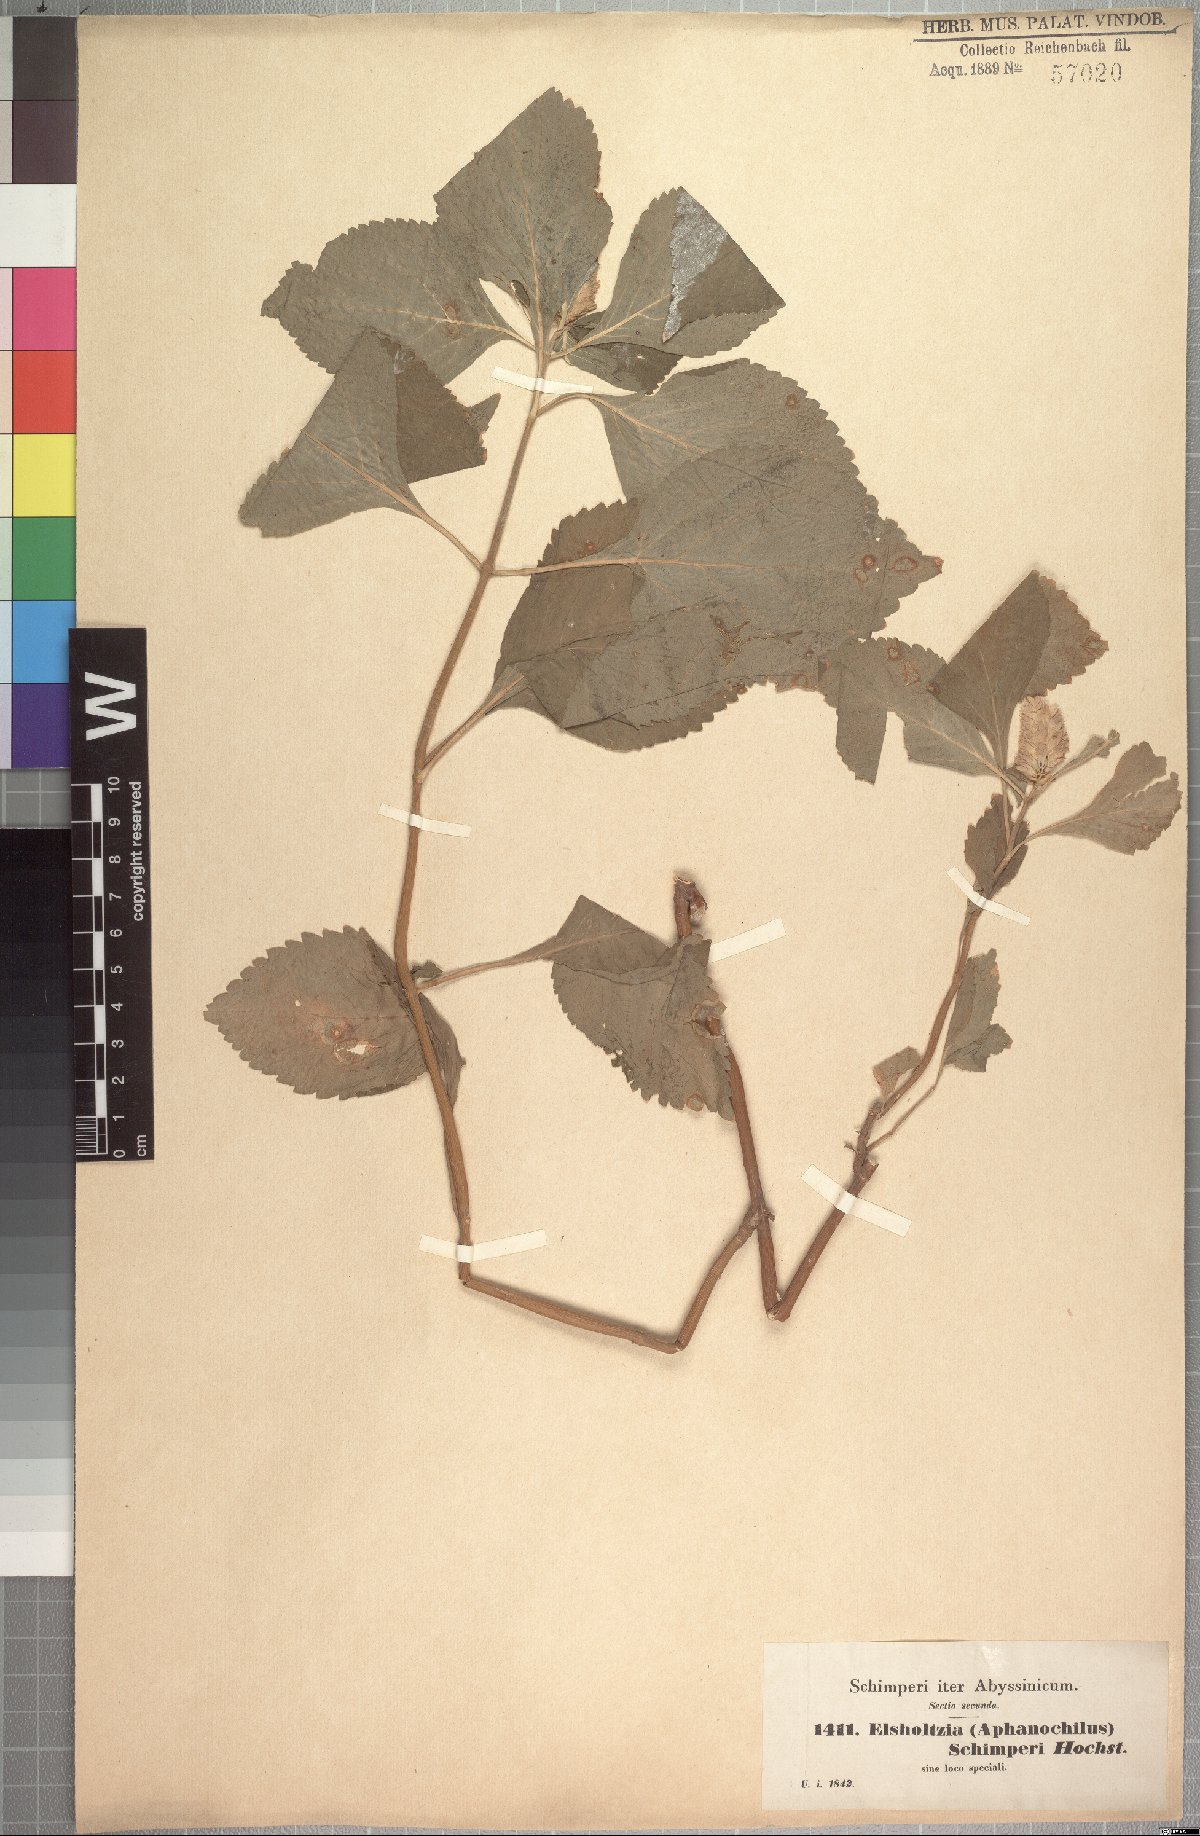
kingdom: Plantae
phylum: Tracheophyta
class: Magnoliopsida
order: Lamiales
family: Lamiaceae
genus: Achyrospermum
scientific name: Achyrospermum schimperi
